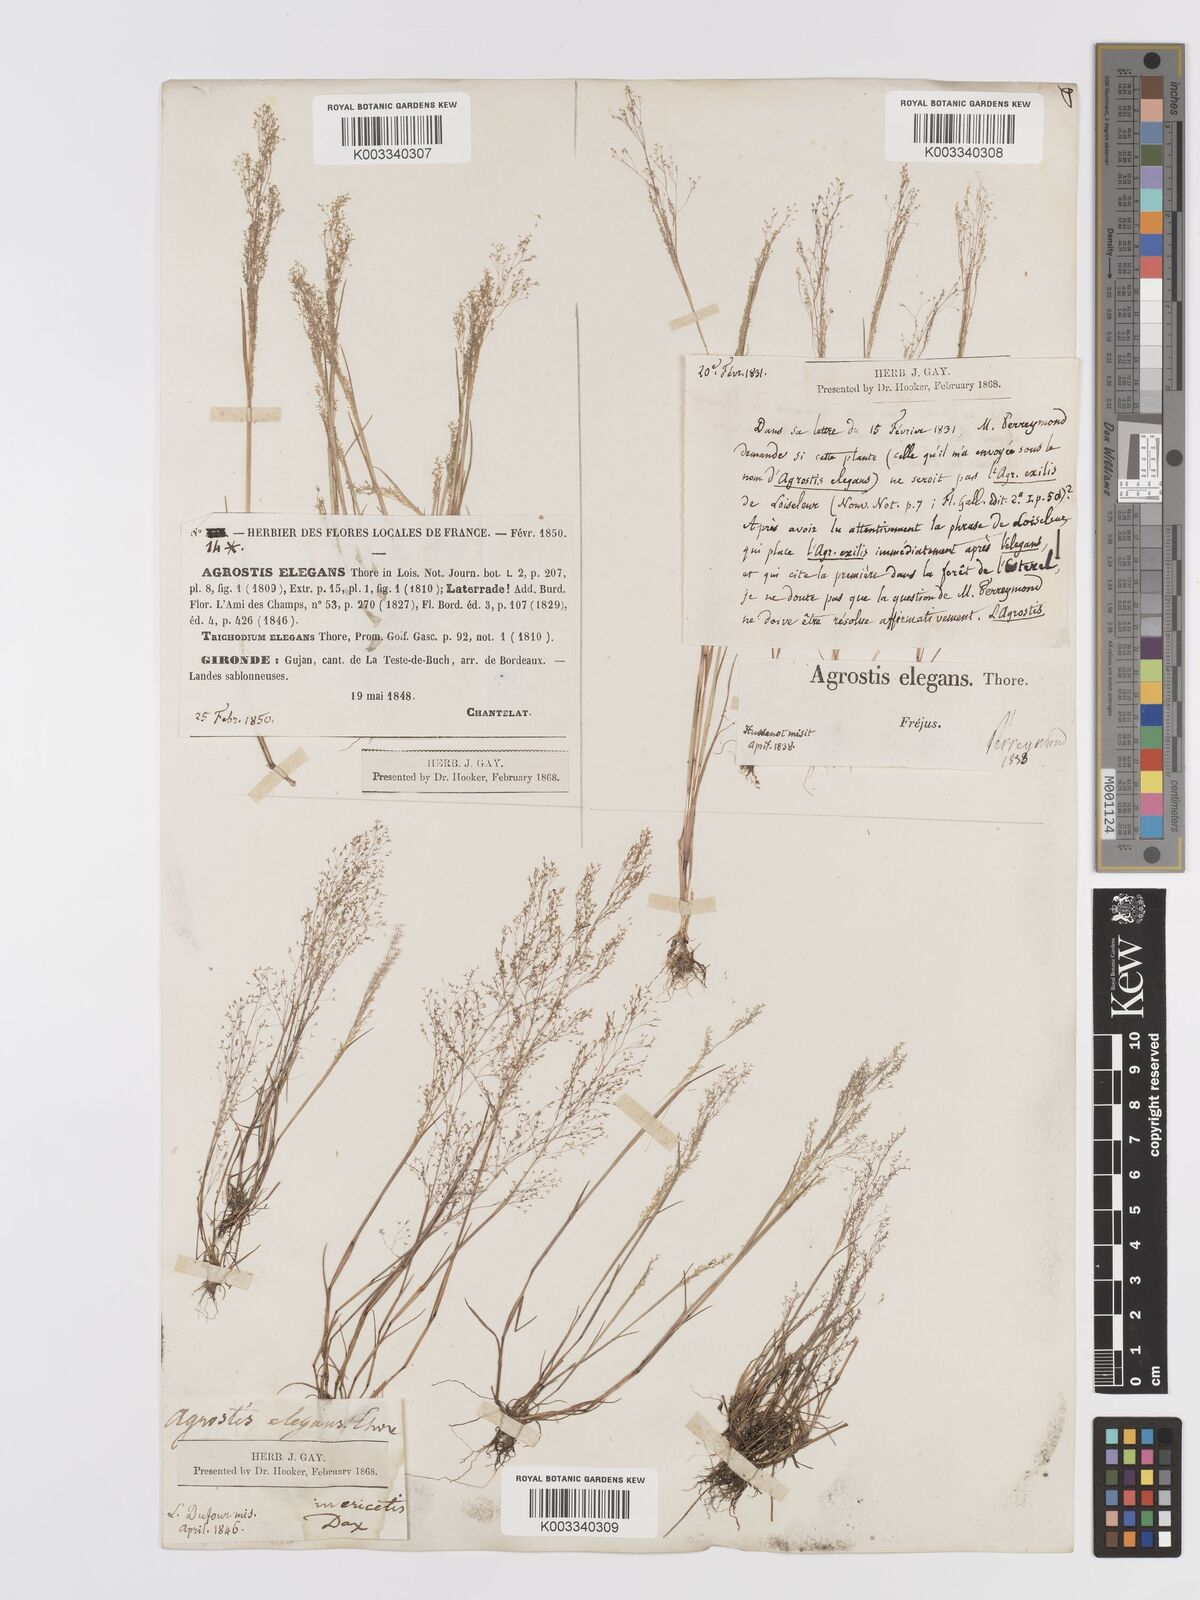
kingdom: Plantae
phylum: Tracheophyta
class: Liliopsida
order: Poales
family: Poaceae
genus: Agrostis
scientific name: Agrostis tenerrima
